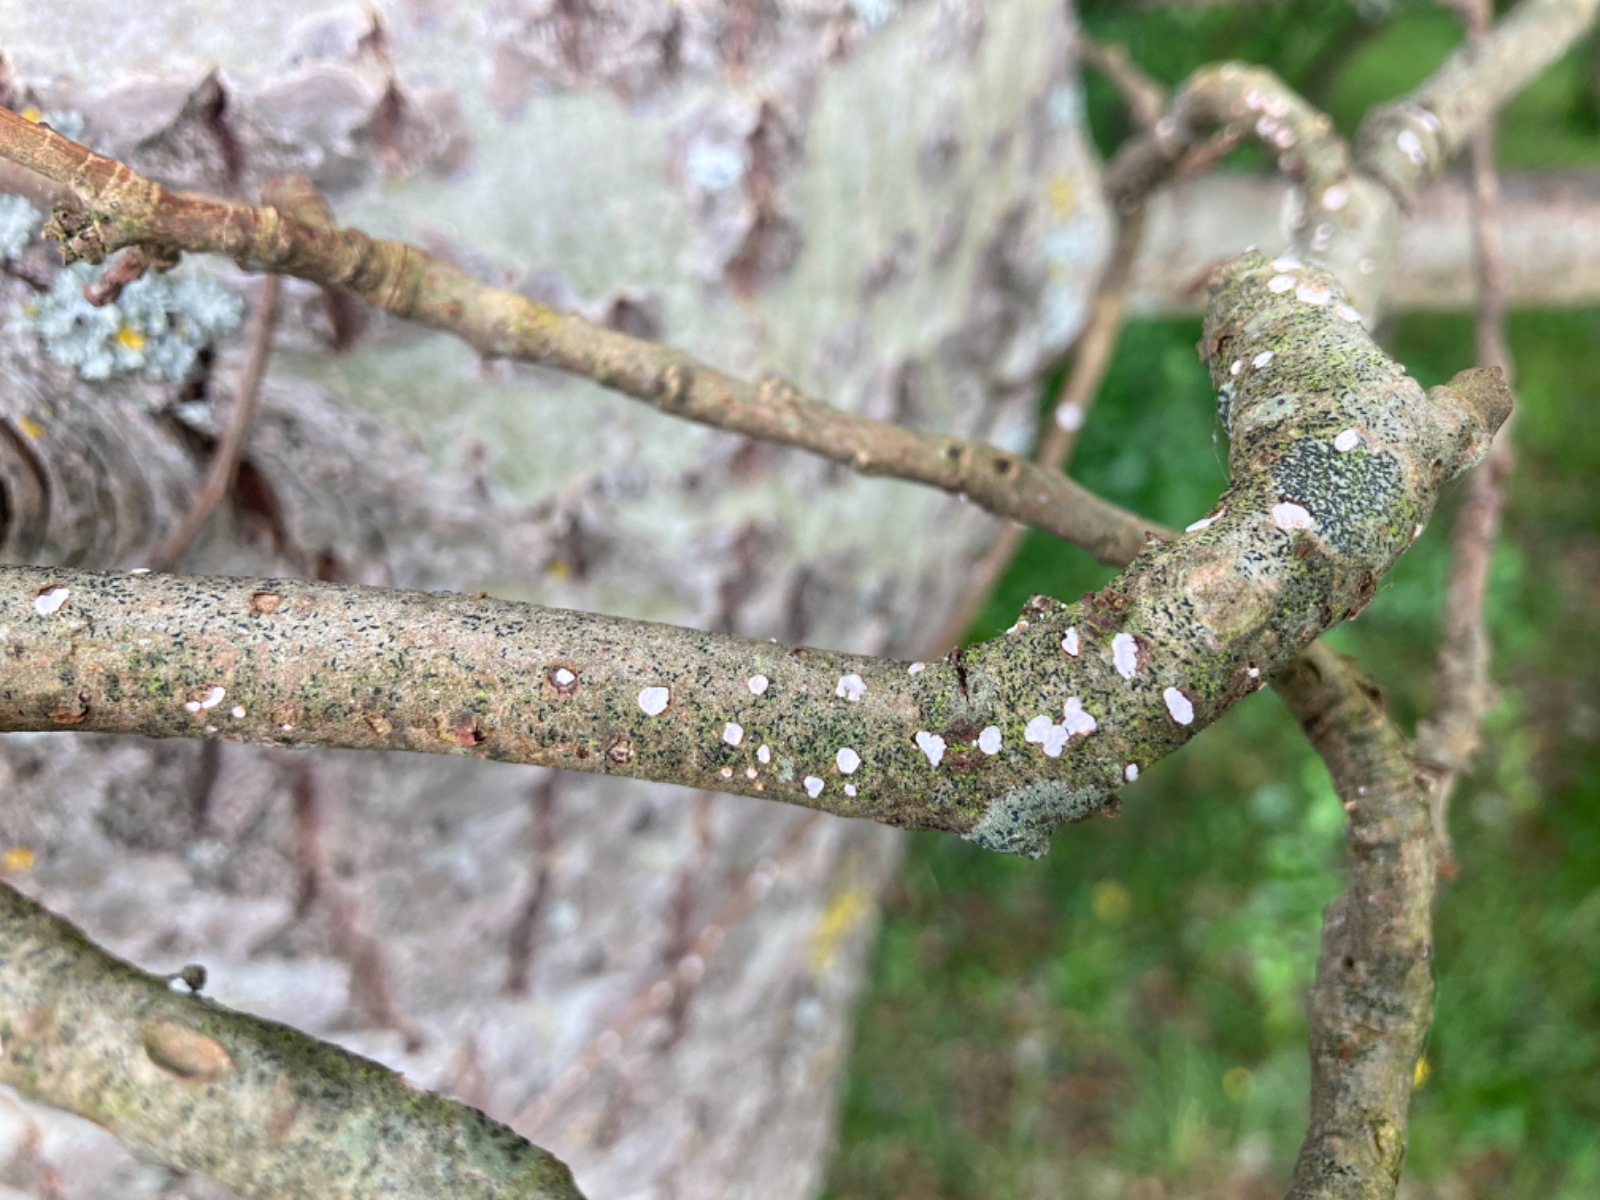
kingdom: Fungi
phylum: Basidiomycota
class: Agaricomycetes
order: Russulales
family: Peniophoraceae
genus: Peniophora
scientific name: Peniophora polygonia
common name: polygon-voksskind
